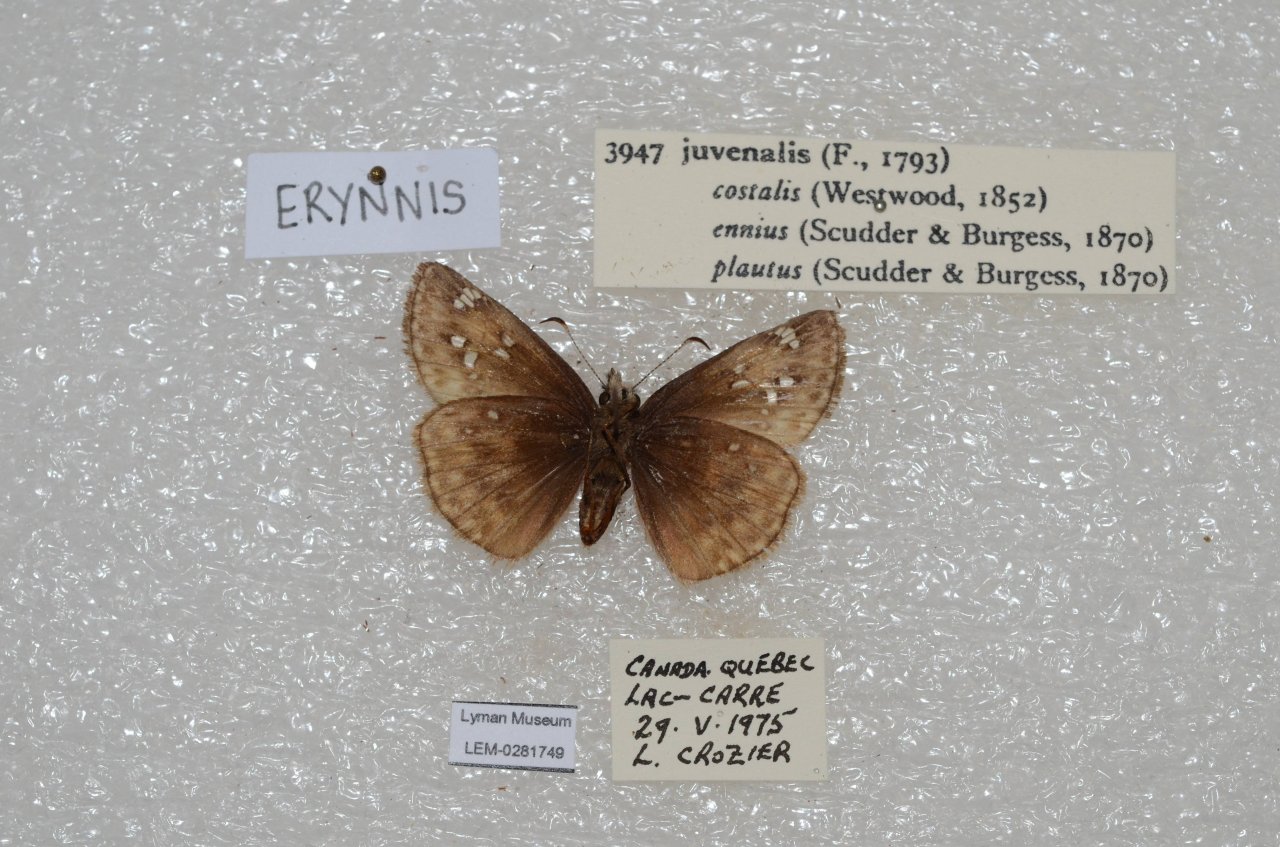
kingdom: Animalia
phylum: Arthropoda
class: Insecta
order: Lepidoptera
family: Hesperiidae
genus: Gesta
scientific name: Gesta
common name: Juvenal's Duskywing
